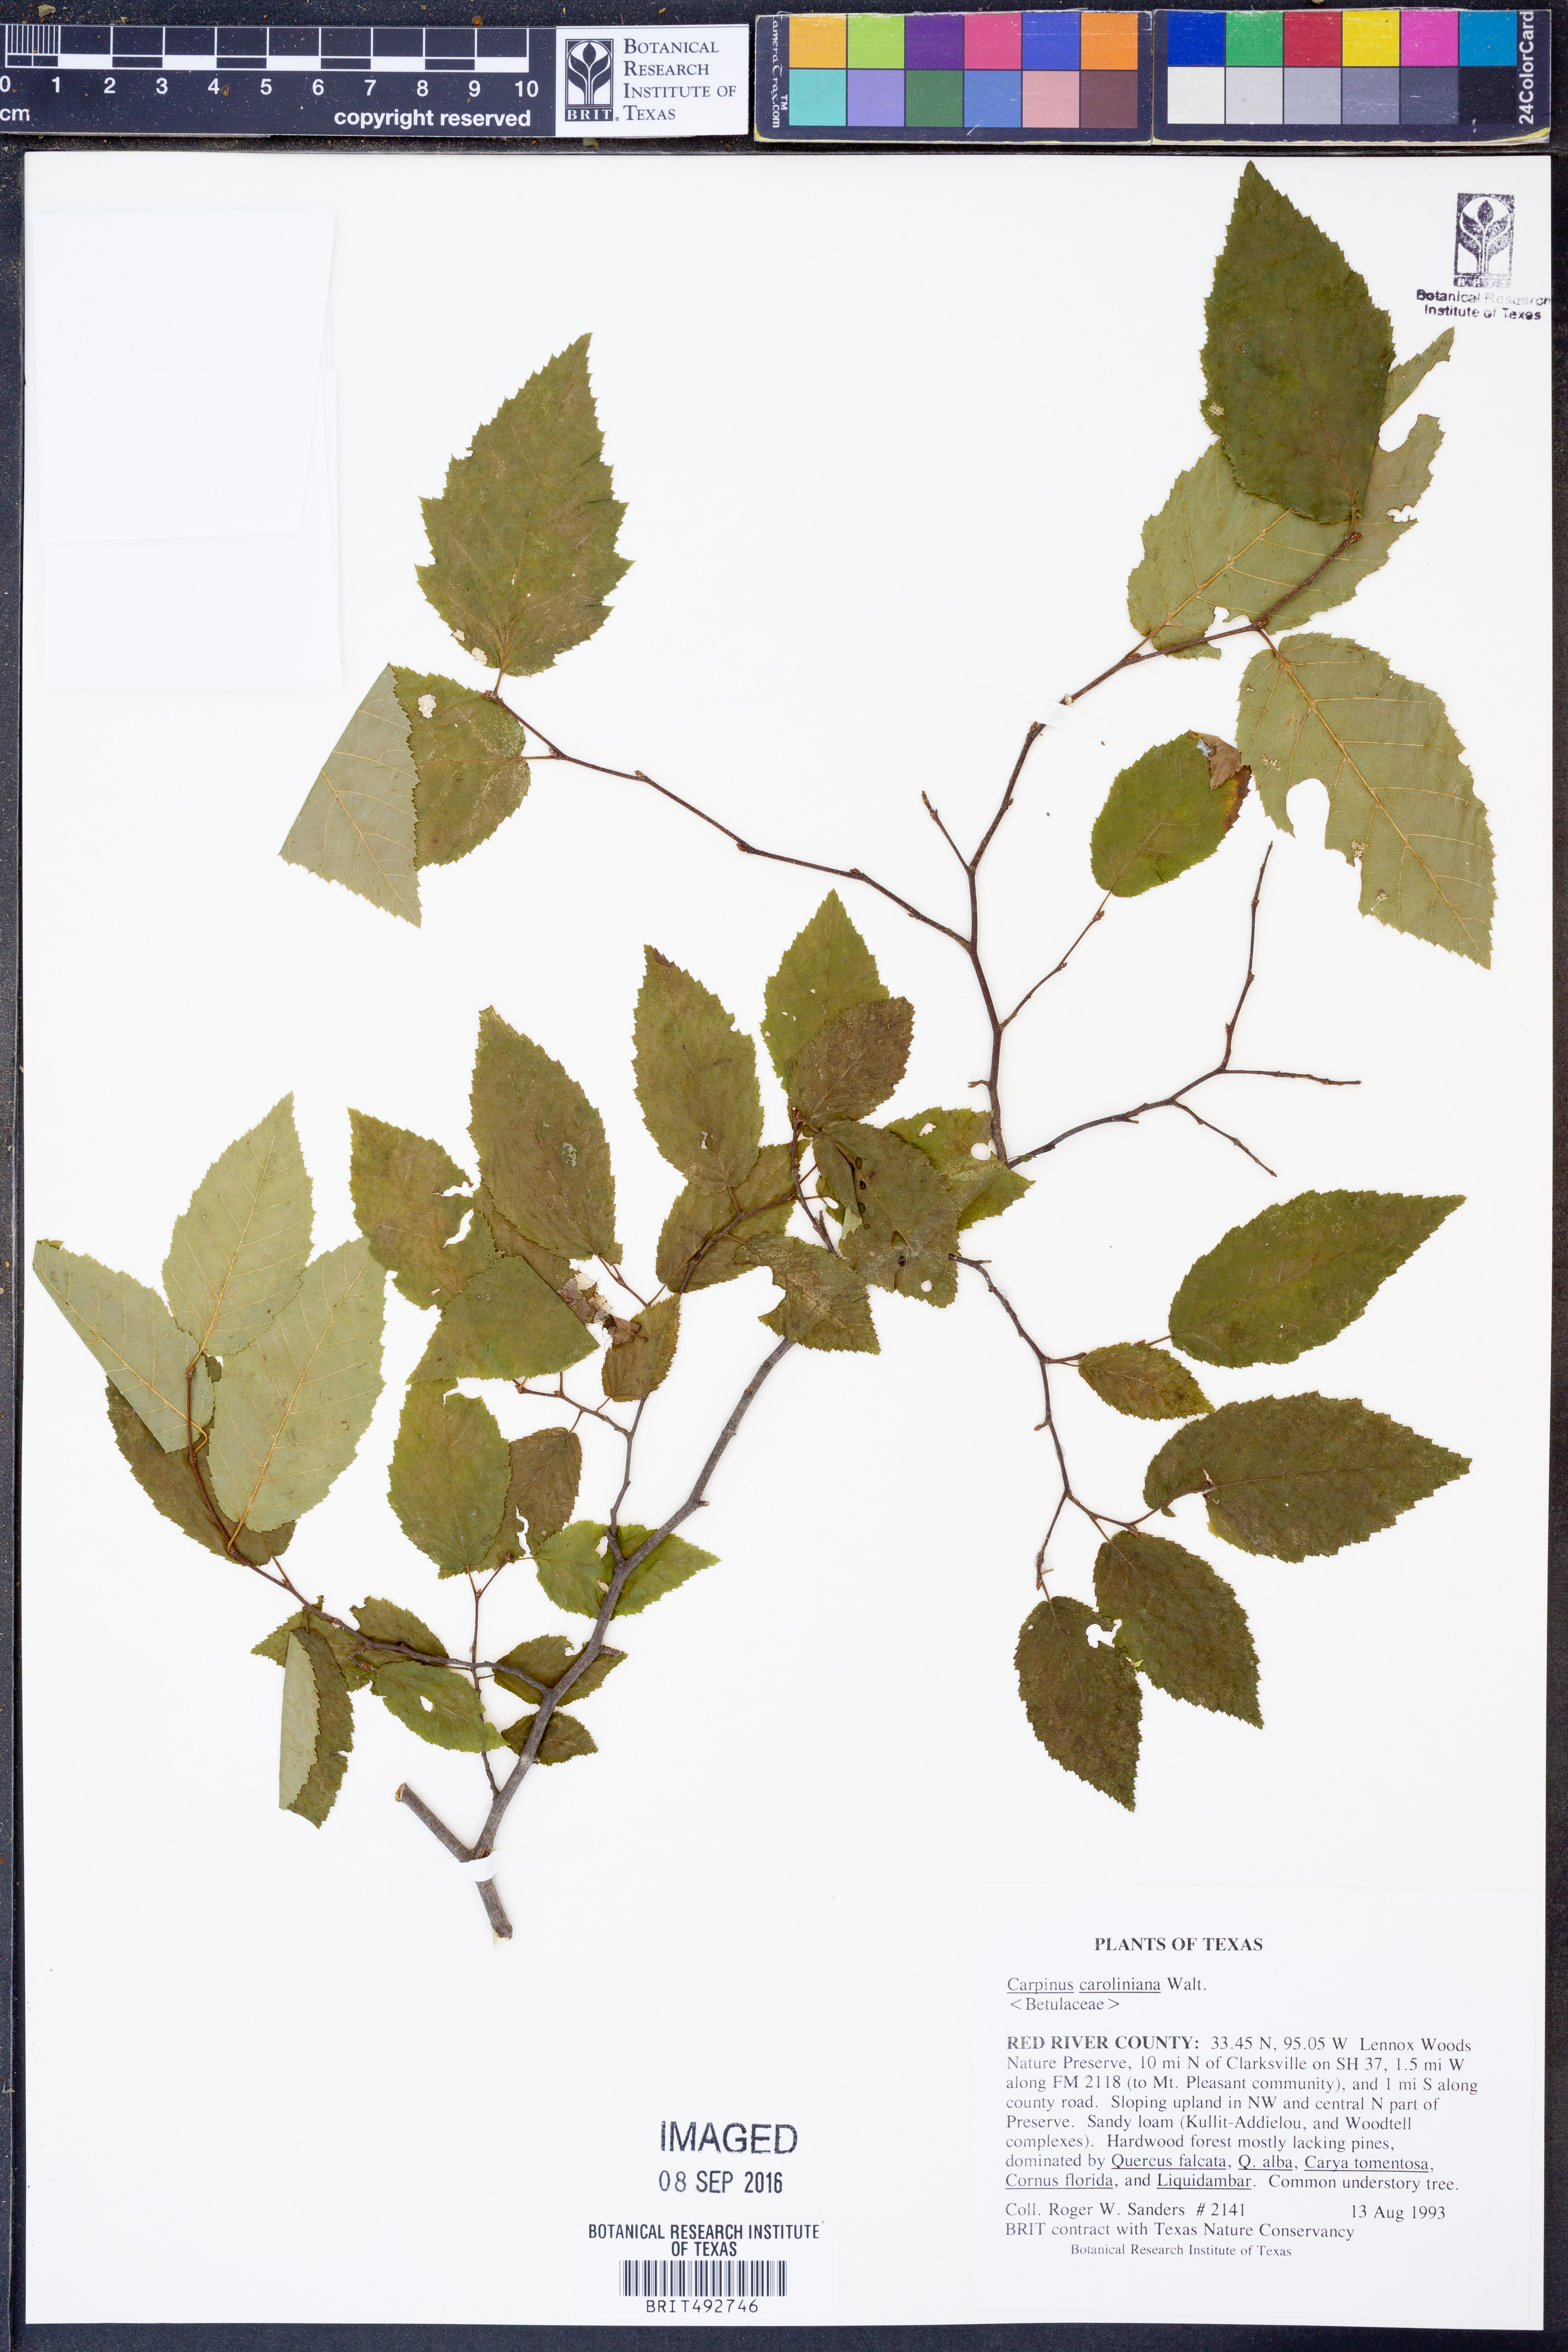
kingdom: Plantae
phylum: Tracheophyta
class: Magnoliopsida
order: Fagales
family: Betulaceae
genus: Carpinus
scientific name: Carpinus caroliniana
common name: American hornbeam
